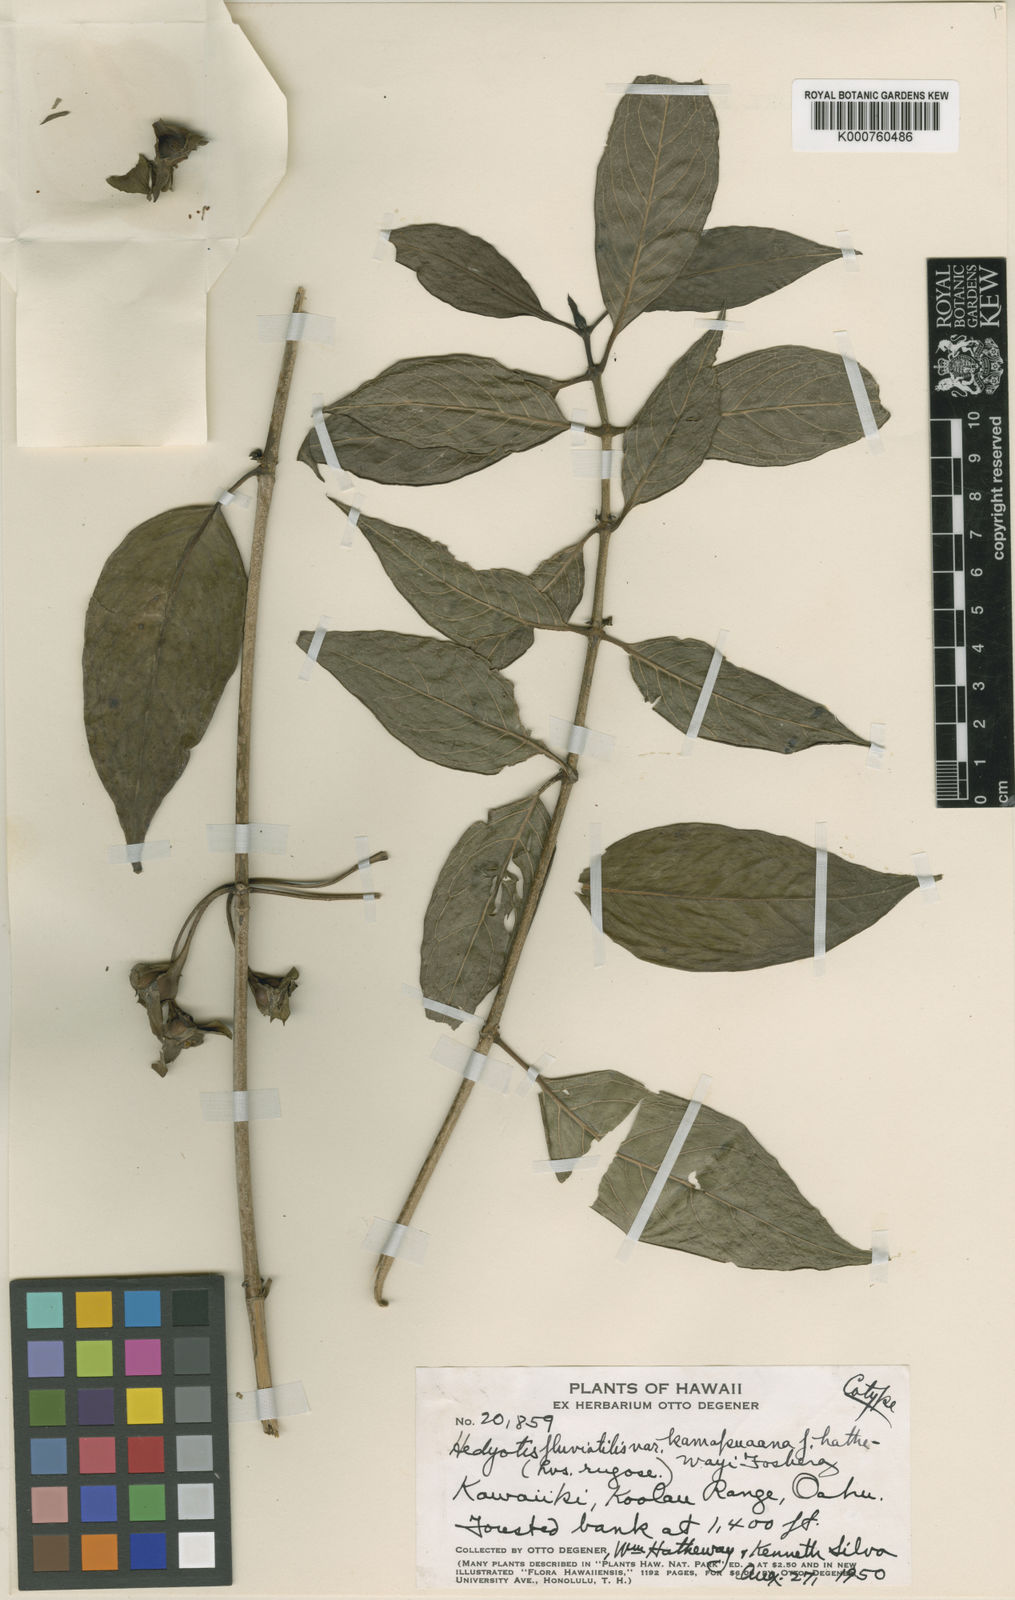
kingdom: Plantae
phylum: Tracheophyta
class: Magnoliopsida
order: Gentianales
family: Rubiaceae
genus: Kadua
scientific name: Kadua fluviatilis
